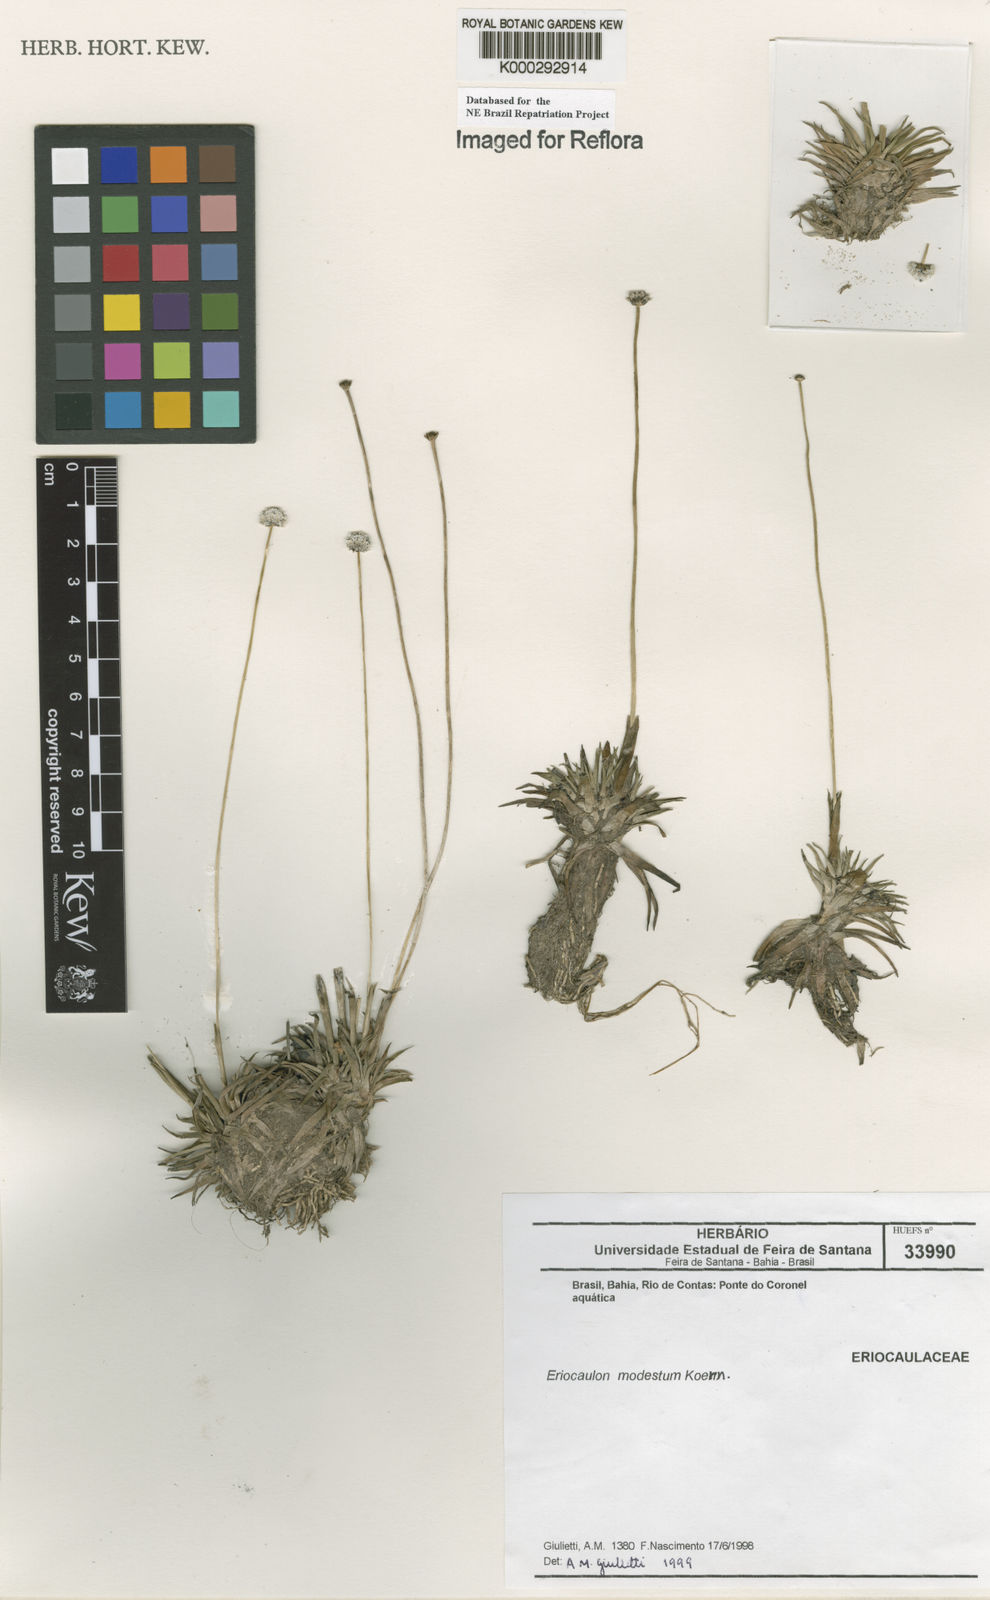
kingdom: Plantae
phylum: Tracheophyta
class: Liliopsida
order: Poales
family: Eriocaulaceae
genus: Eriocaulon
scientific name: Eriocaulon modestum
